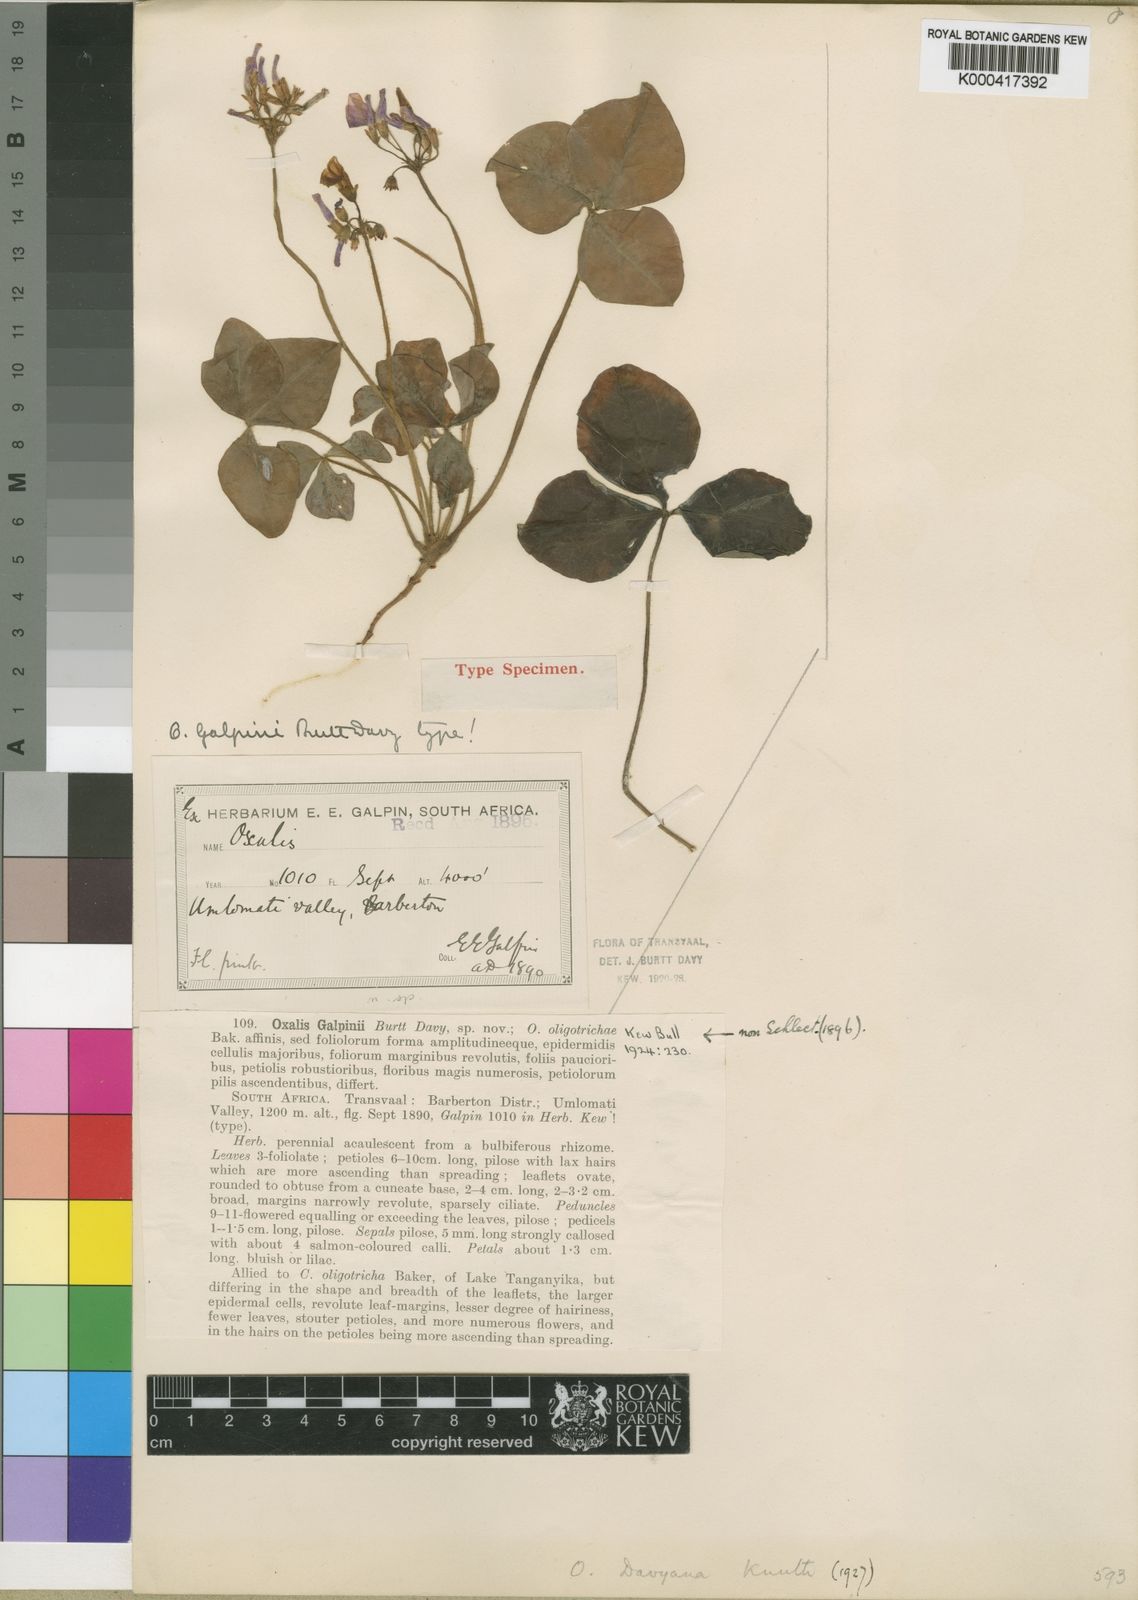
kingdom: Plantae
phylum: Tracheophyta
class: Magnoliopsida
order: Oxalidales
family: Oxalidaceae
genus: Oxalis
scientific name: Oxalis davyana
